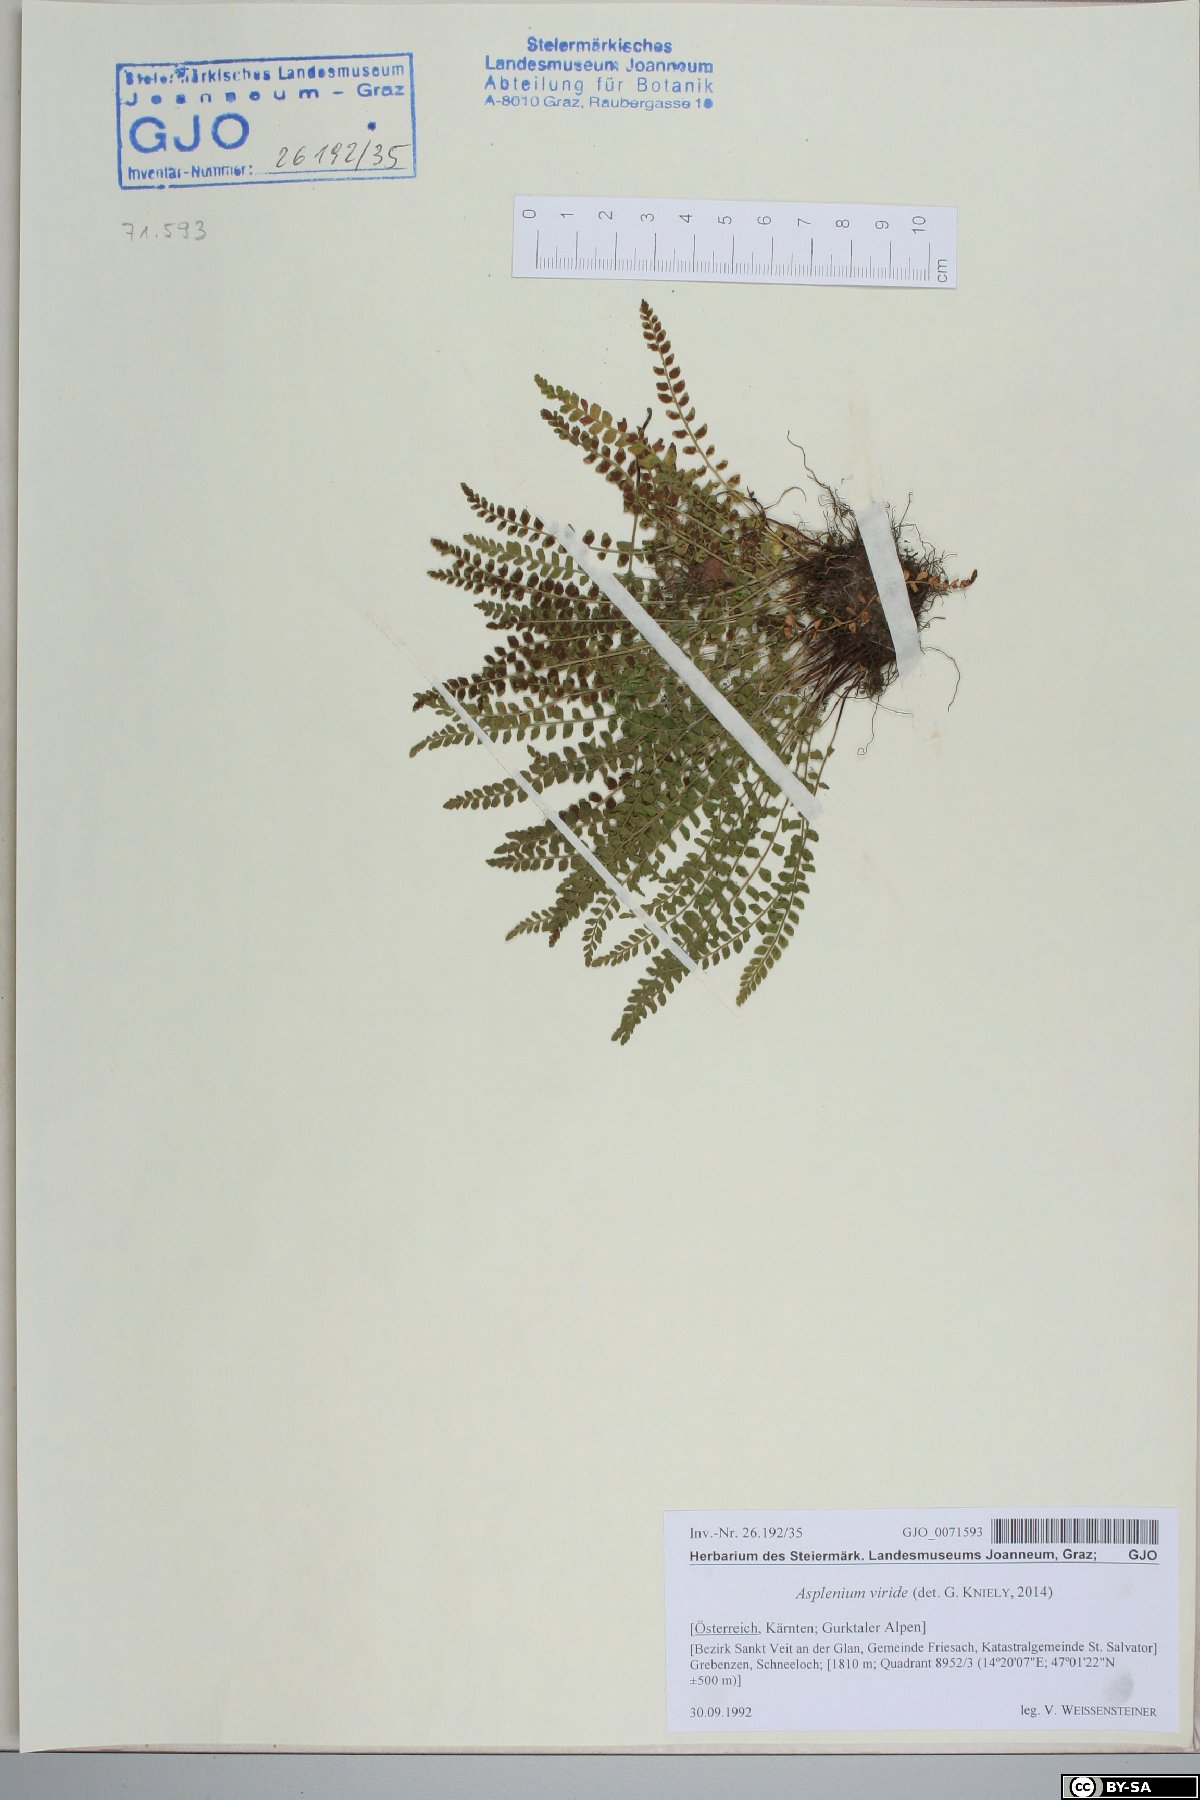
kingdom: Plantae
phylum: Tracheophyta
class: Polypodiopsida
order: Polypodiales
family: Aspleniaceae
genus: Asplenium
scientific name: Asplenium viride
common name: Green spleenwort
